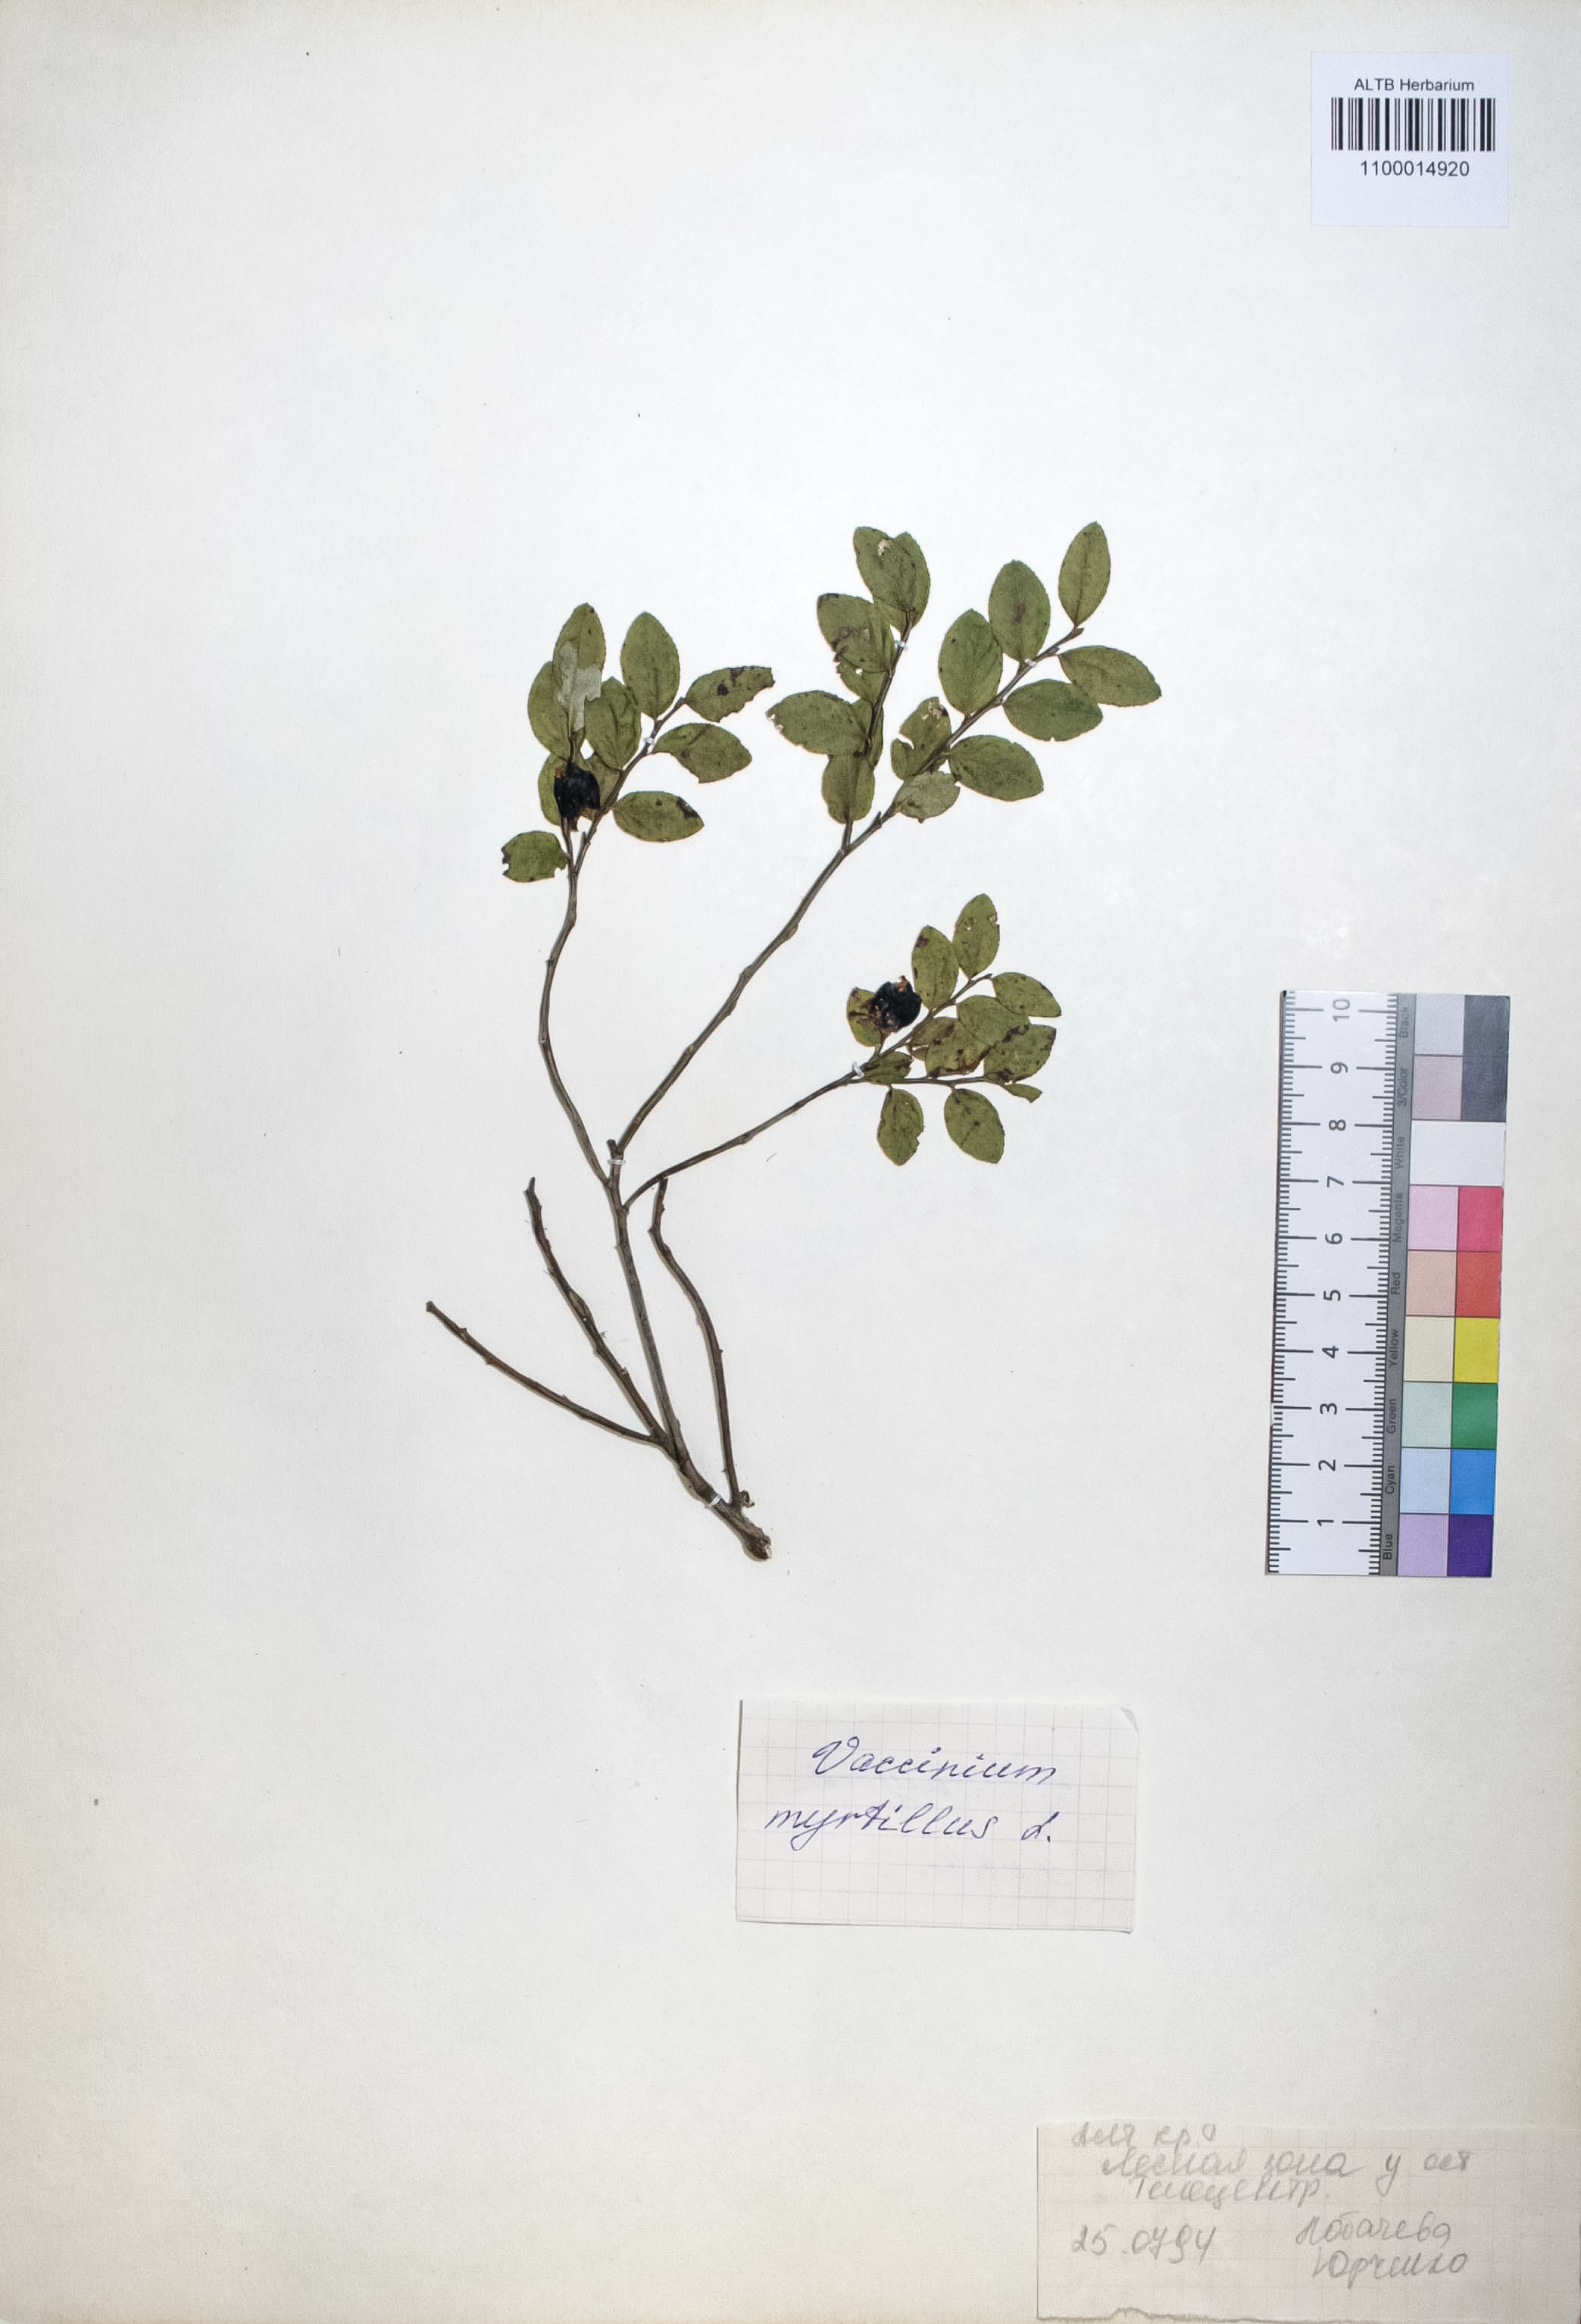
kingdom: Plantae
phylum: Tracheophyta
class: Magnoliopsida
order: Ericales
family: Ericaceae
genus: Vaccinium
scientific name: Vaccinium myrtillus
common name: Bilberry
